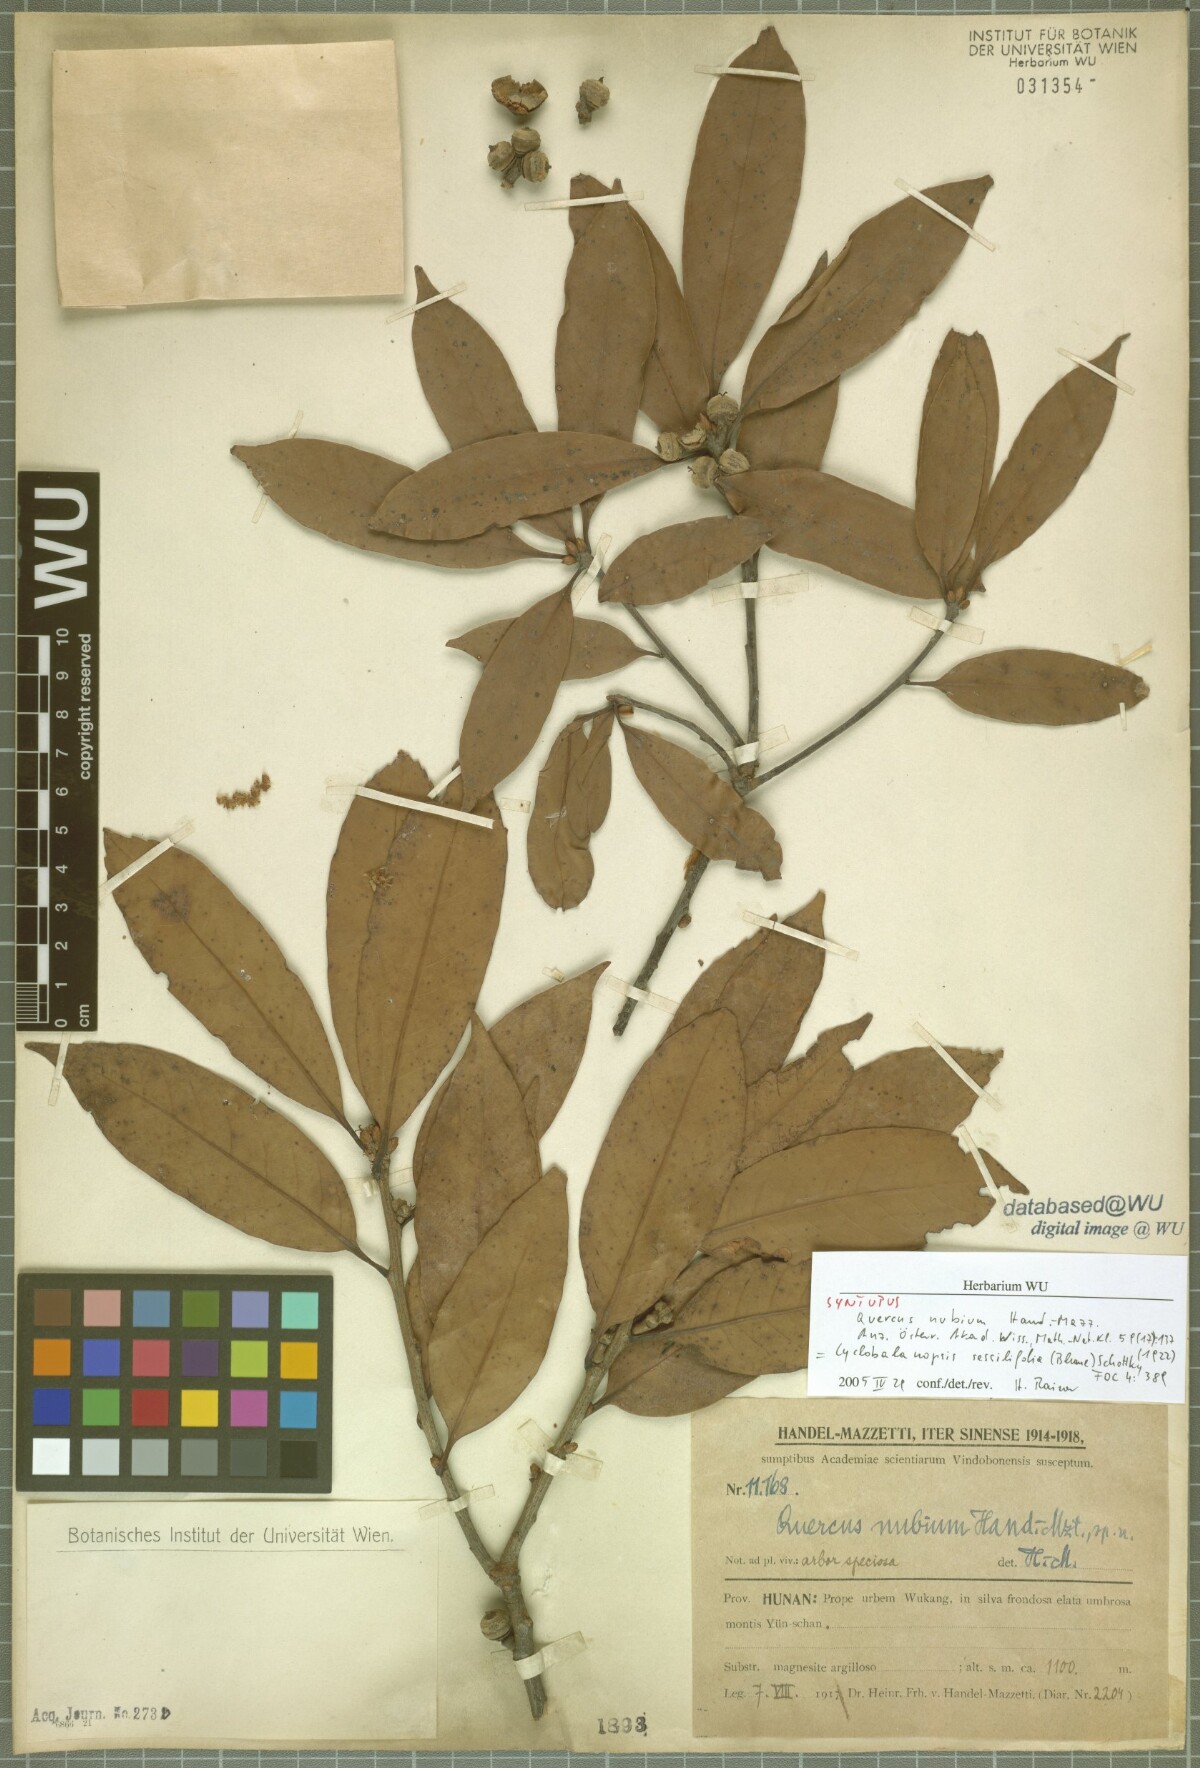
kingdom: Plantae
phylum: Tracheophyta
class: Magnoliopsida
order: Fagales
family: Fagaceae
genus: Quercus
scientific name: Quercus sessilifolia
